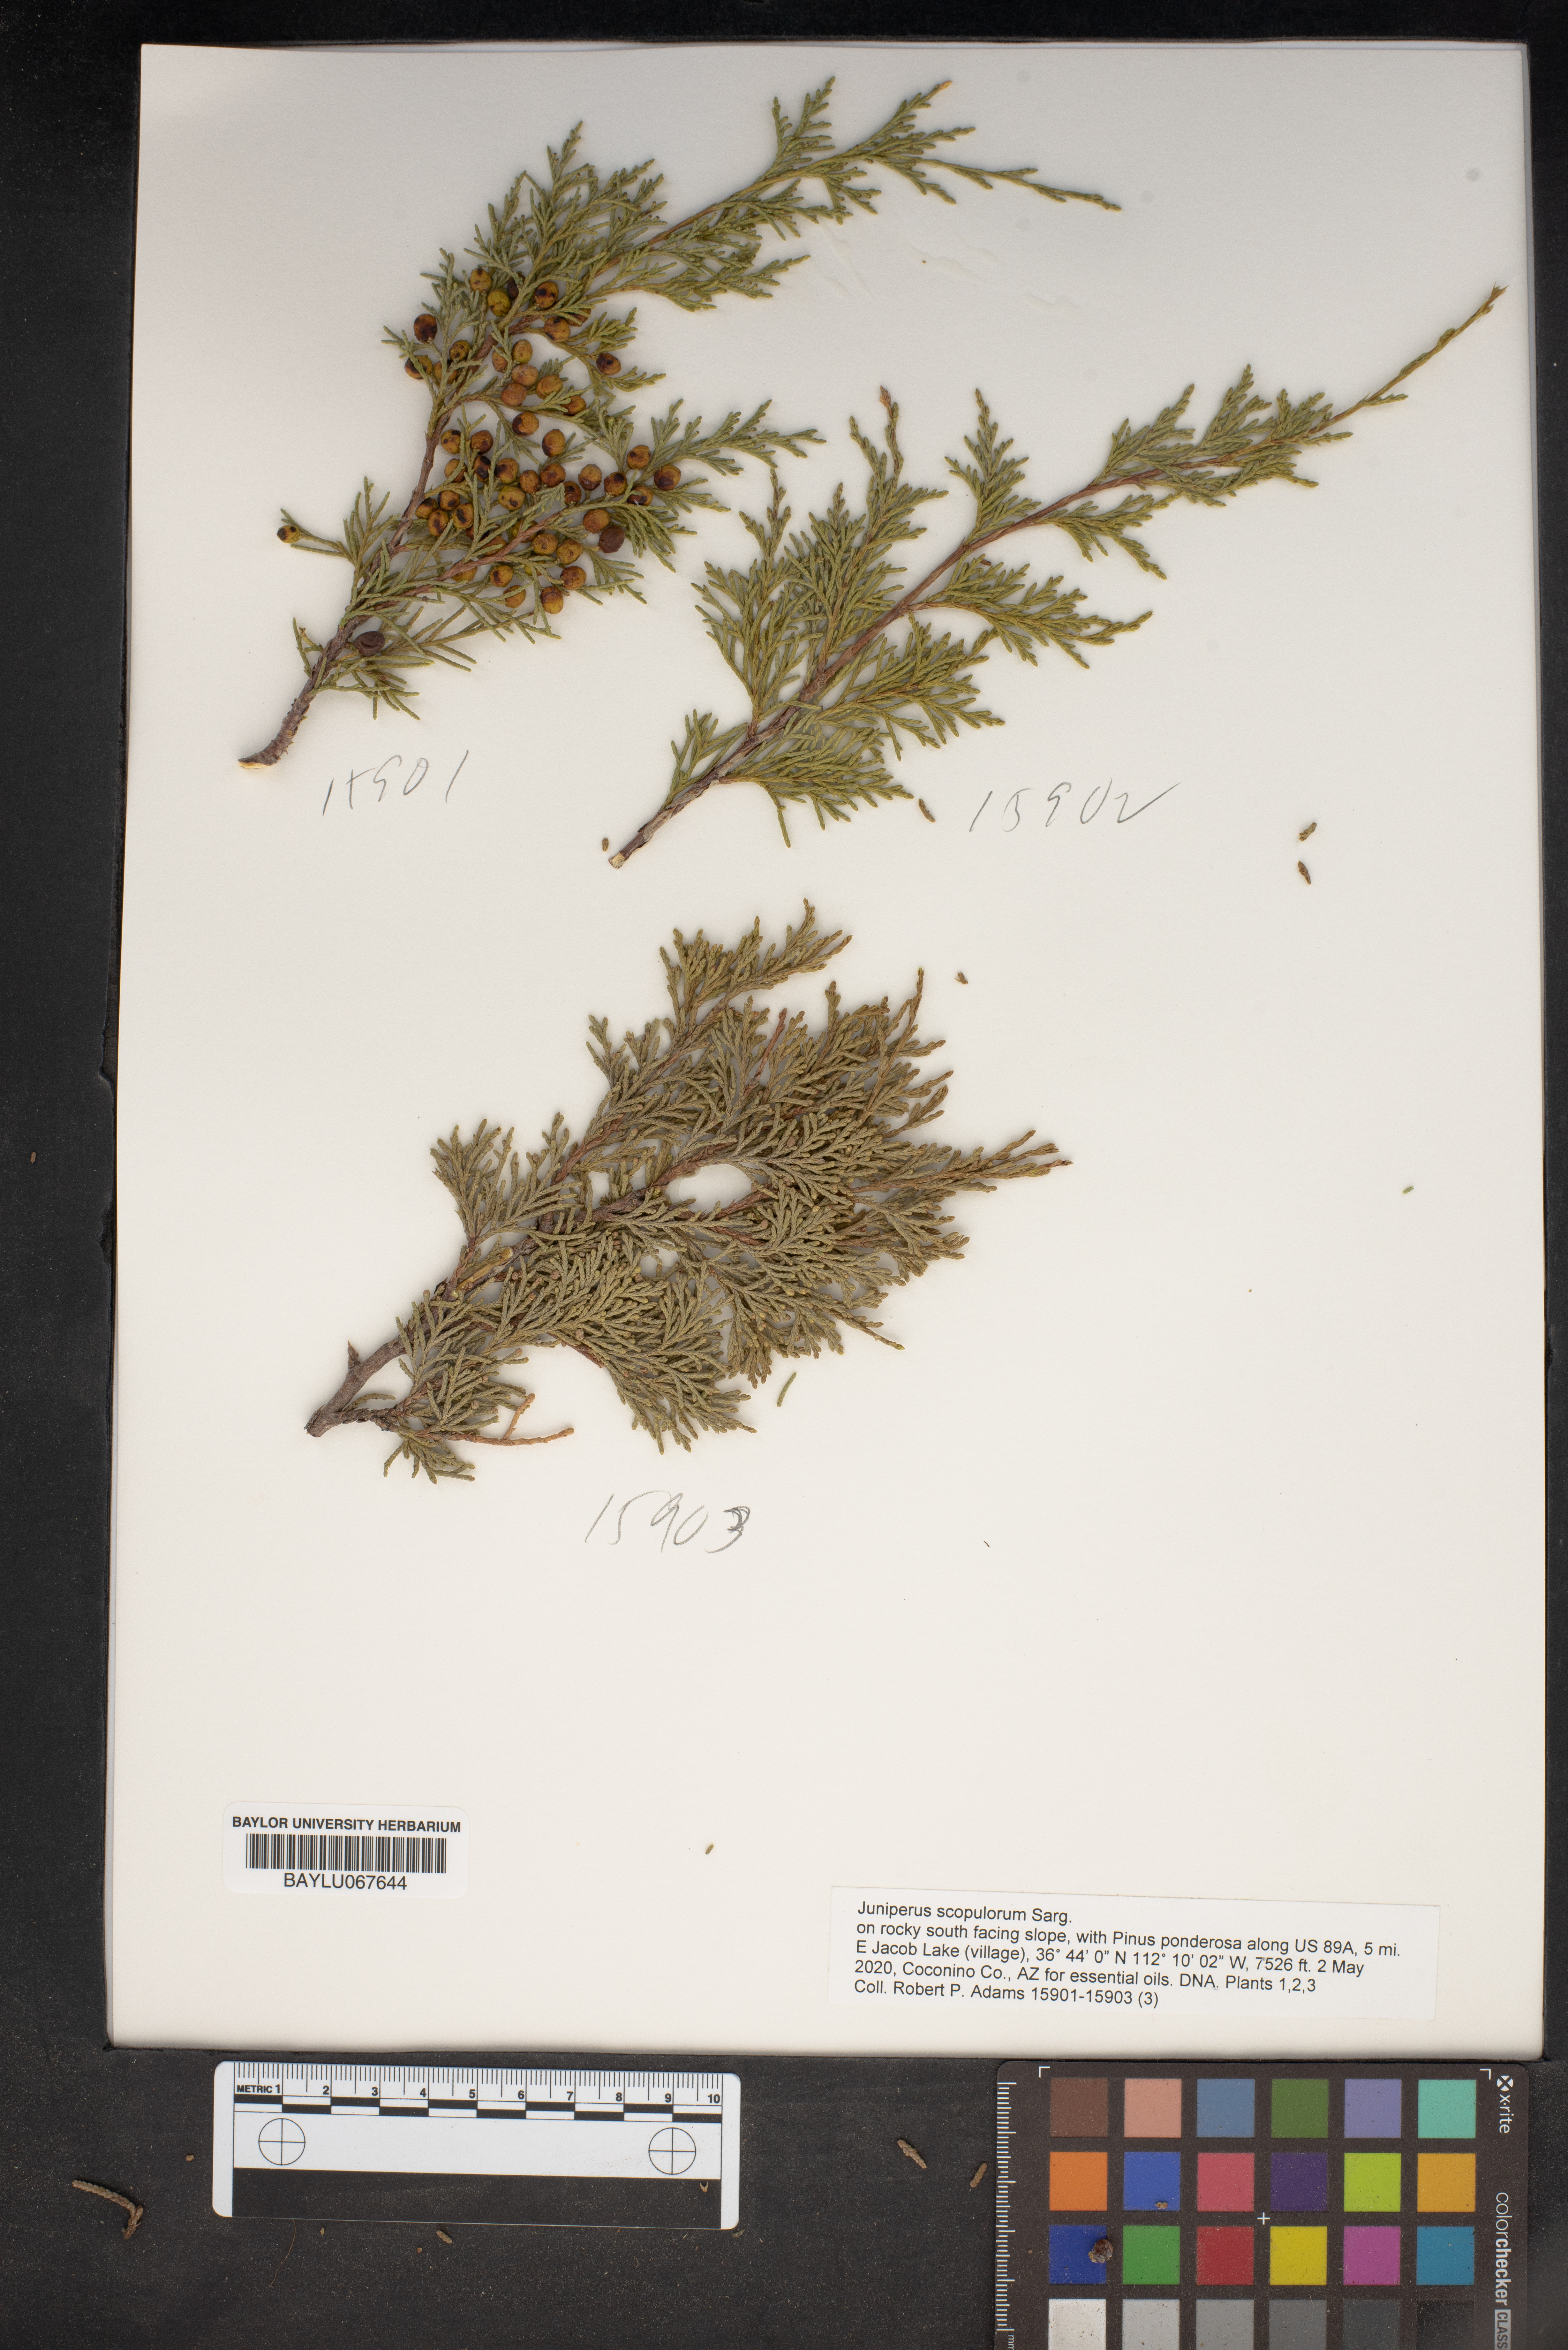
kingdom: Plantae
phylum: Tracheophyta
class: Pinopsida
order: Pinales
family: Cupressaceae
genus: Juniperus
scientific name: Juniperus scopulorum
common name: Rocky mountain juniper
